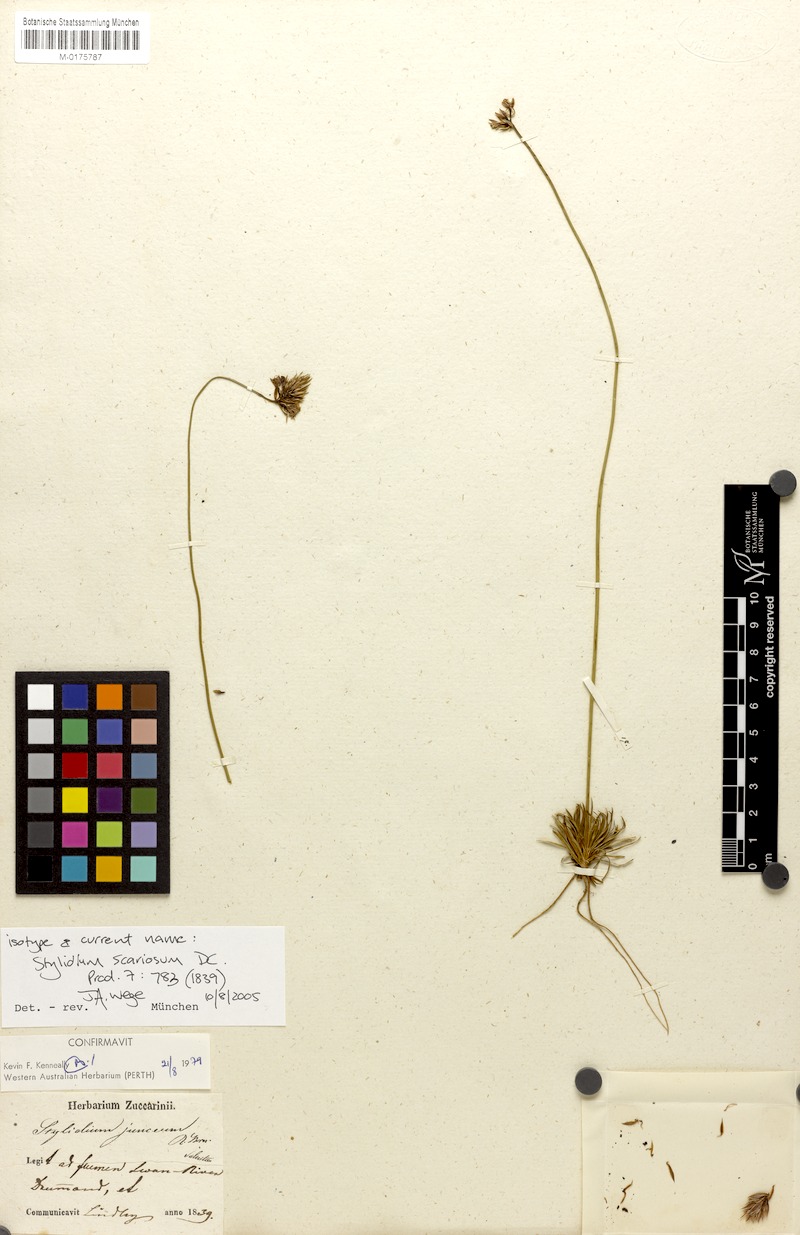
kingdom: Plantae
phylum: Tracheophyta
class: Magnoliopsida
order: Asterales
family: Stylidiaceae
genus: Stylidium
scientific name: Stylidium scariosum
